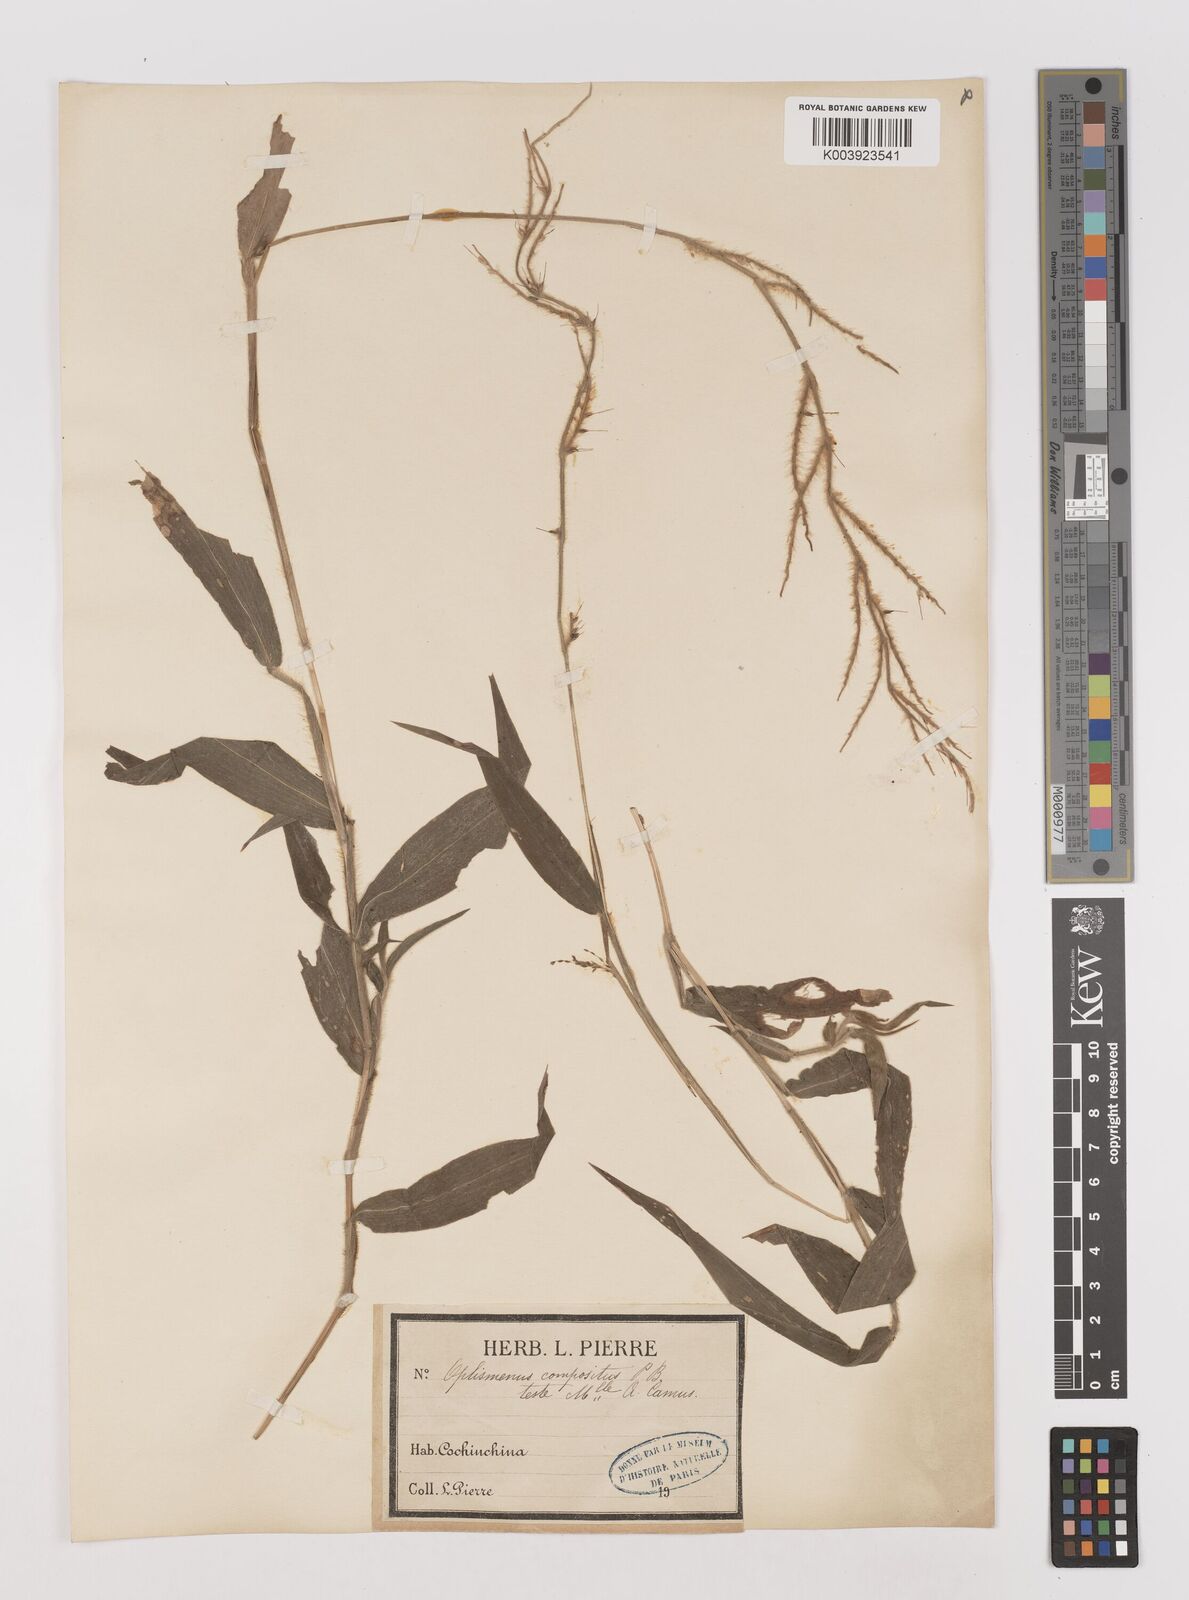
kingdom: Plantae
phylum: Tracheophyta
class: Liliopsida
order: Poales
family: Poaceae
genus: Oplismenus
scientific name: Oplismenus compositus
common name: Running mountain grass
